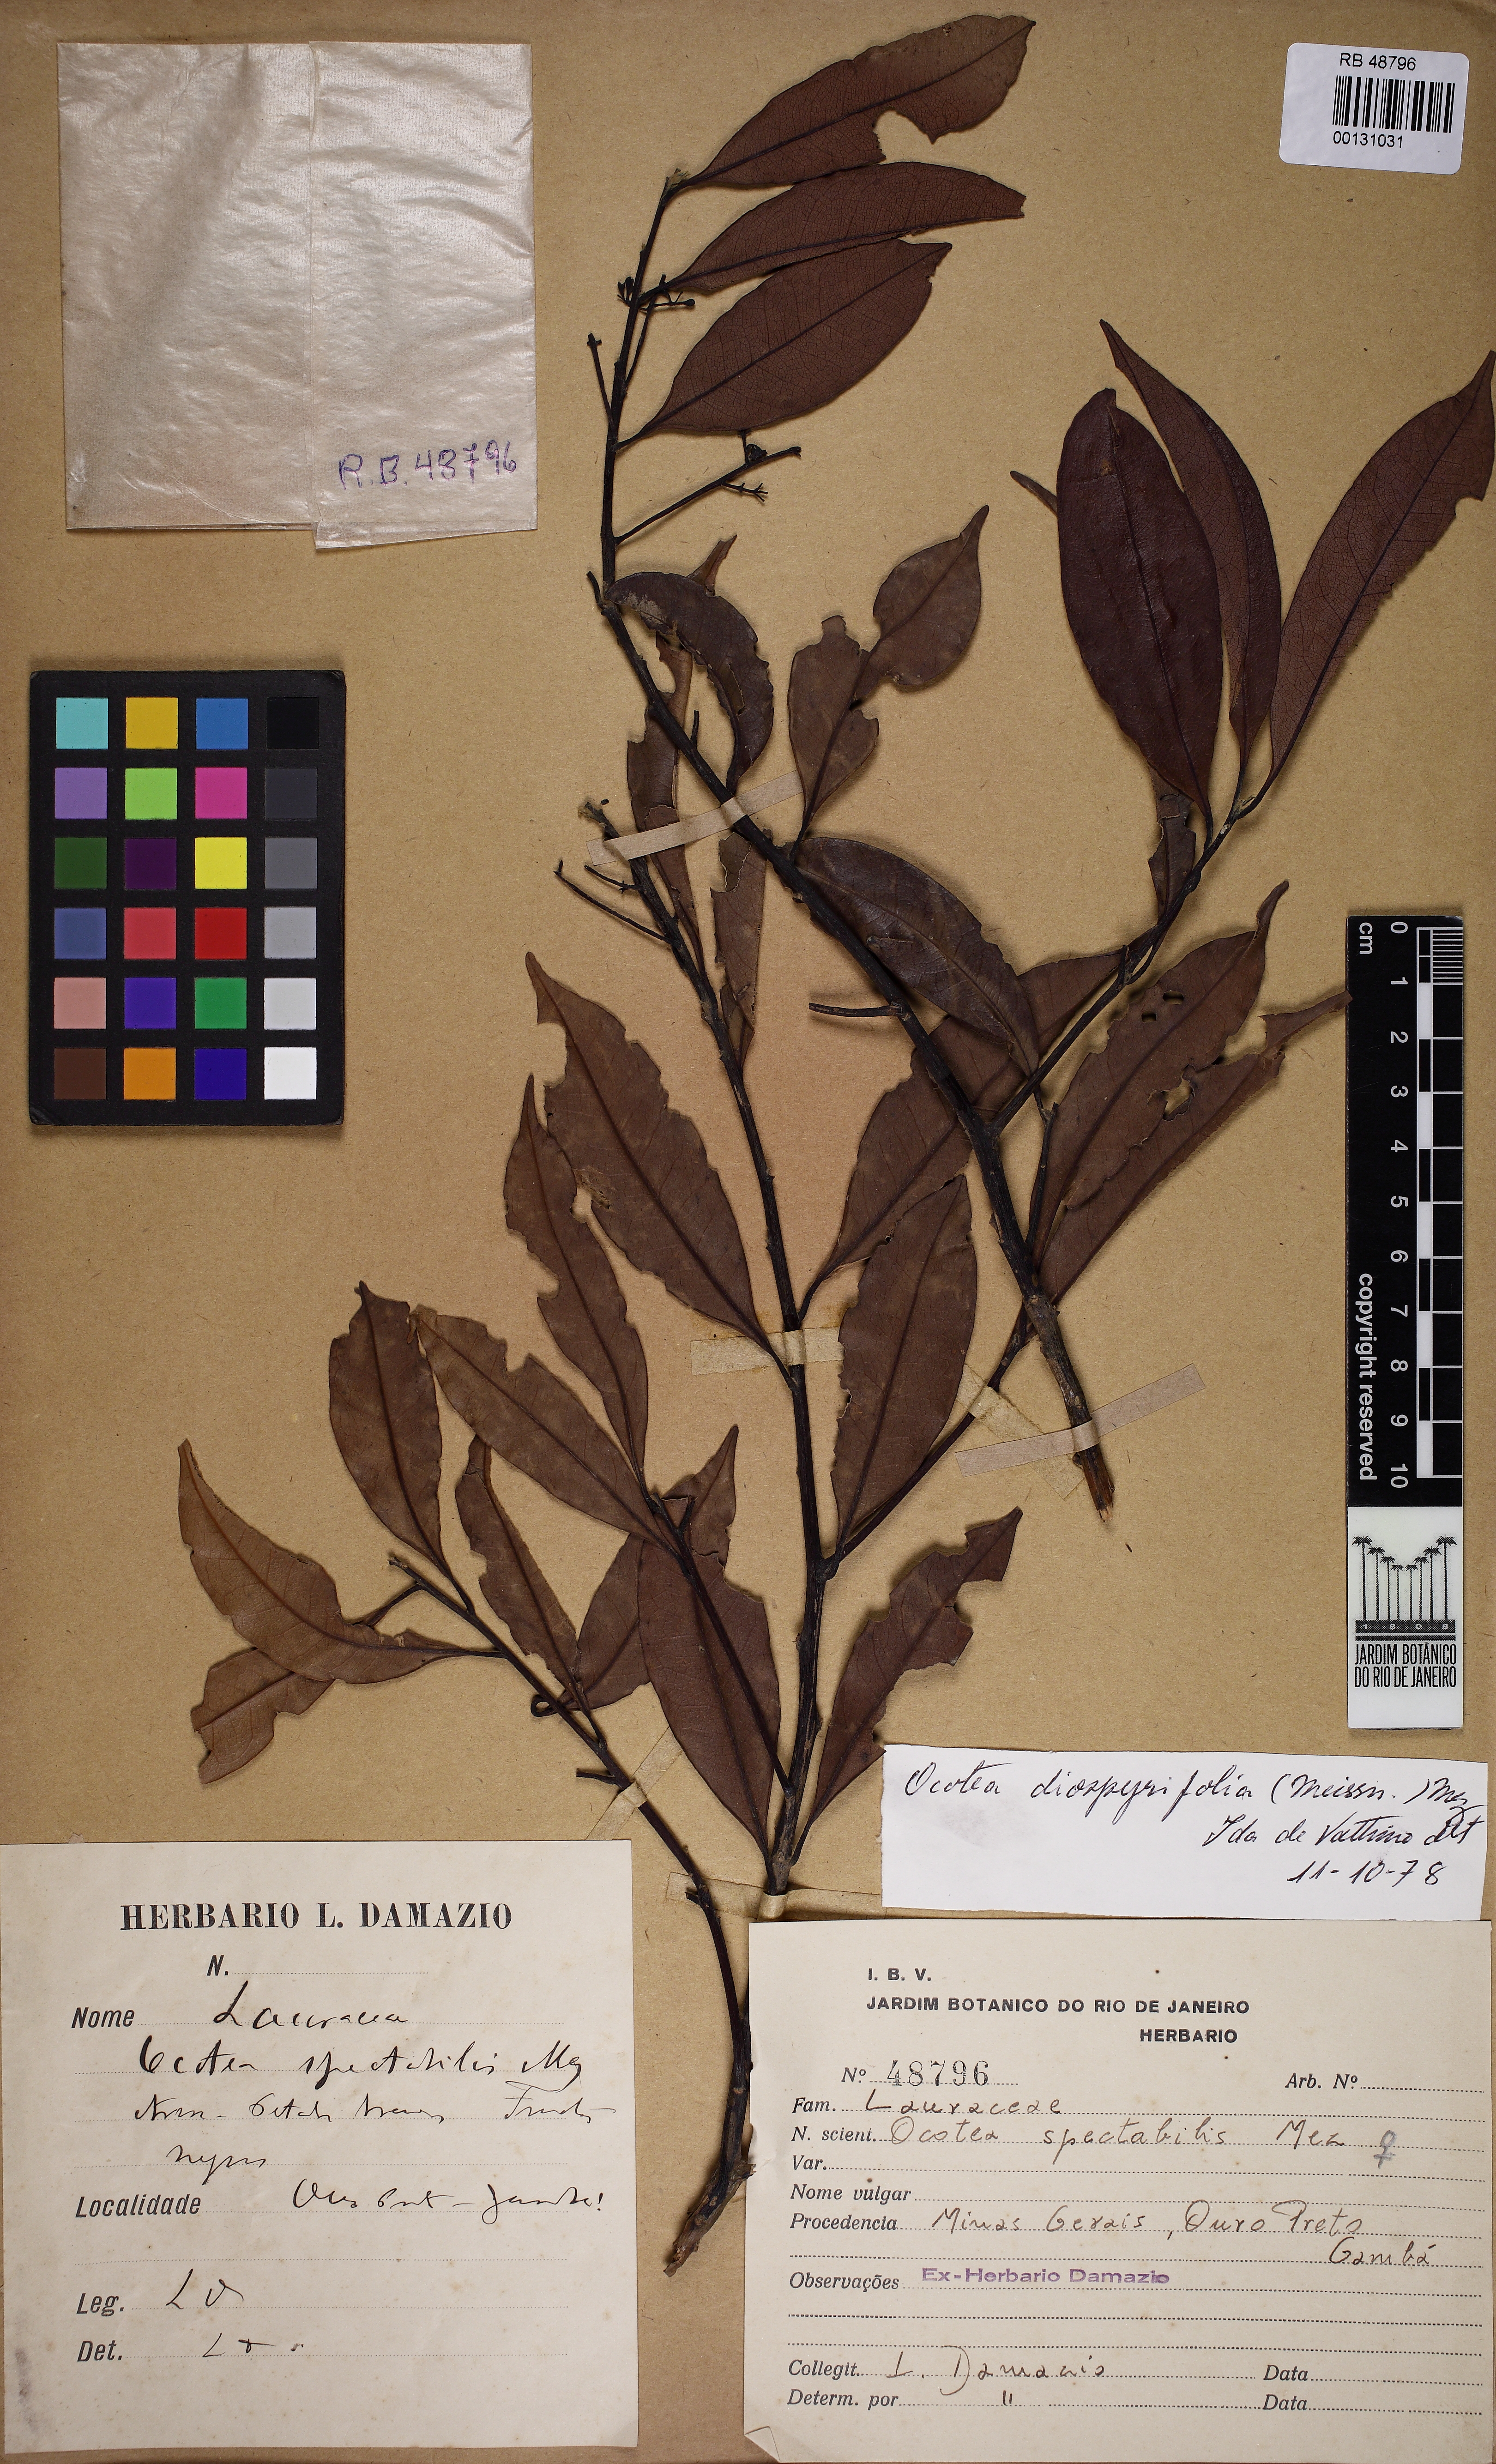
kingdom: Plantae
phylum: Tracheophyta
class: Magnoliopsida
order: Laurales
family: Lauraceae
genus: Ocotea
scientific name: Ocotea diospyrifolia
